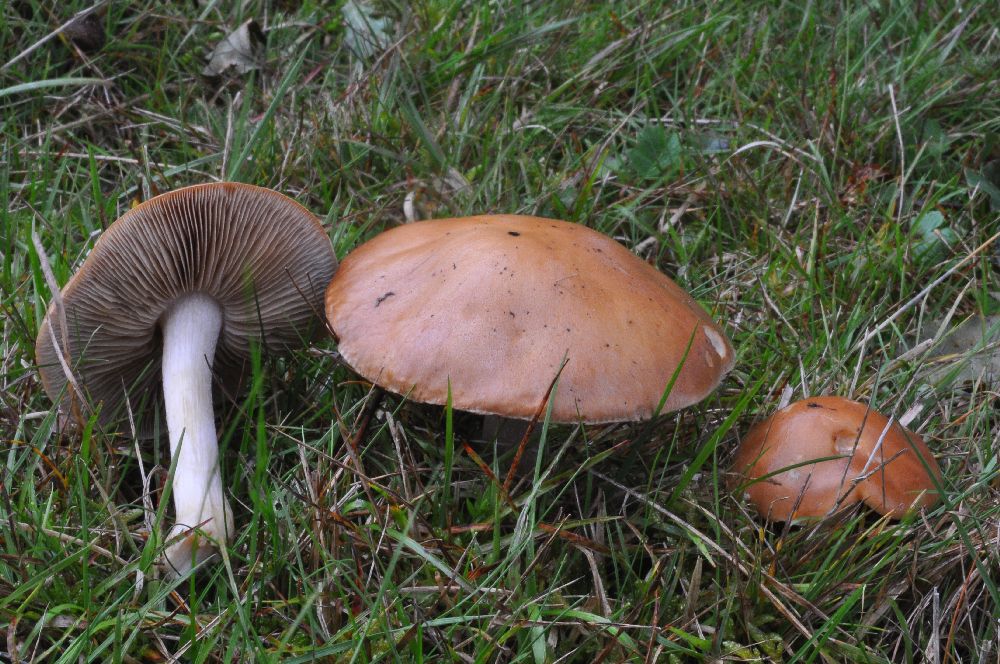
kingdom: Fungi
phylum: Basidiomycota
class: Agaricomycetes
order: Agaricales
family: Hymenogastraceae
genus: Hebeloma
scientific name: Hebeloma theobrominum
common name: rødbrun tåreblad
